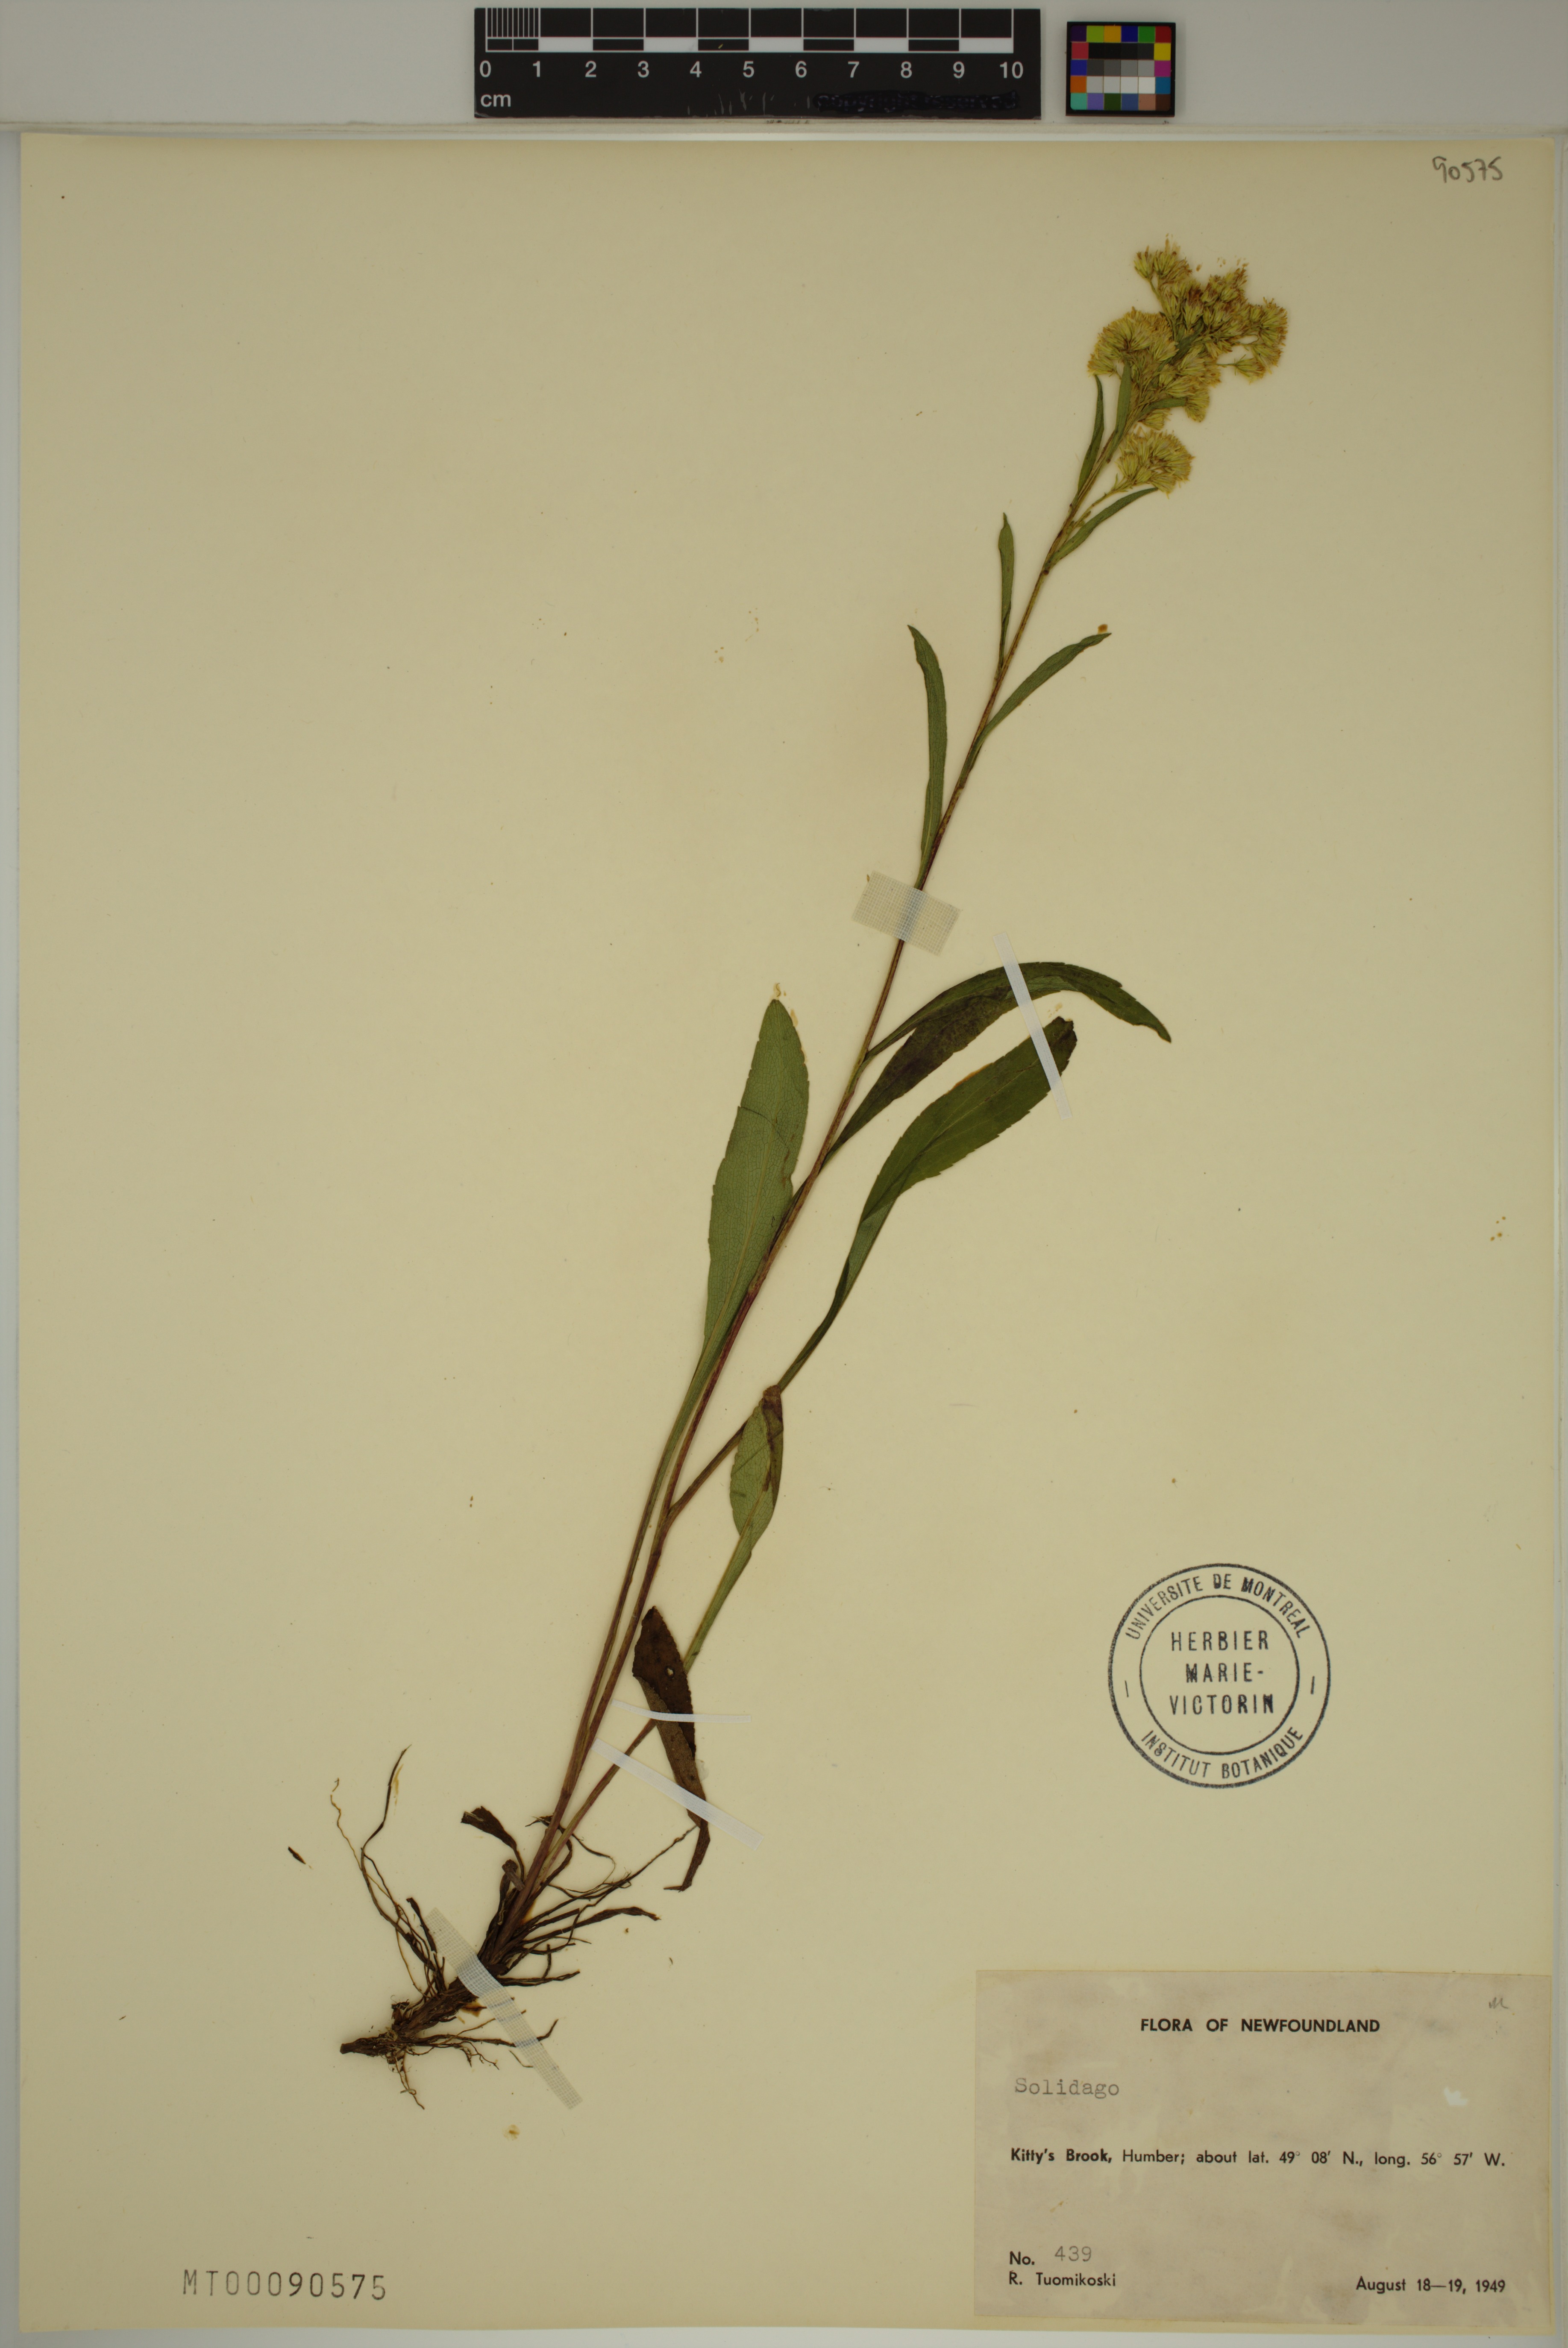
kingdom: Plantae
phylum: Tracheophyta
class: Magnoliopsida
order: Asterales
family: Asteraceae
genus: Solidago
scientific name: Solidago
